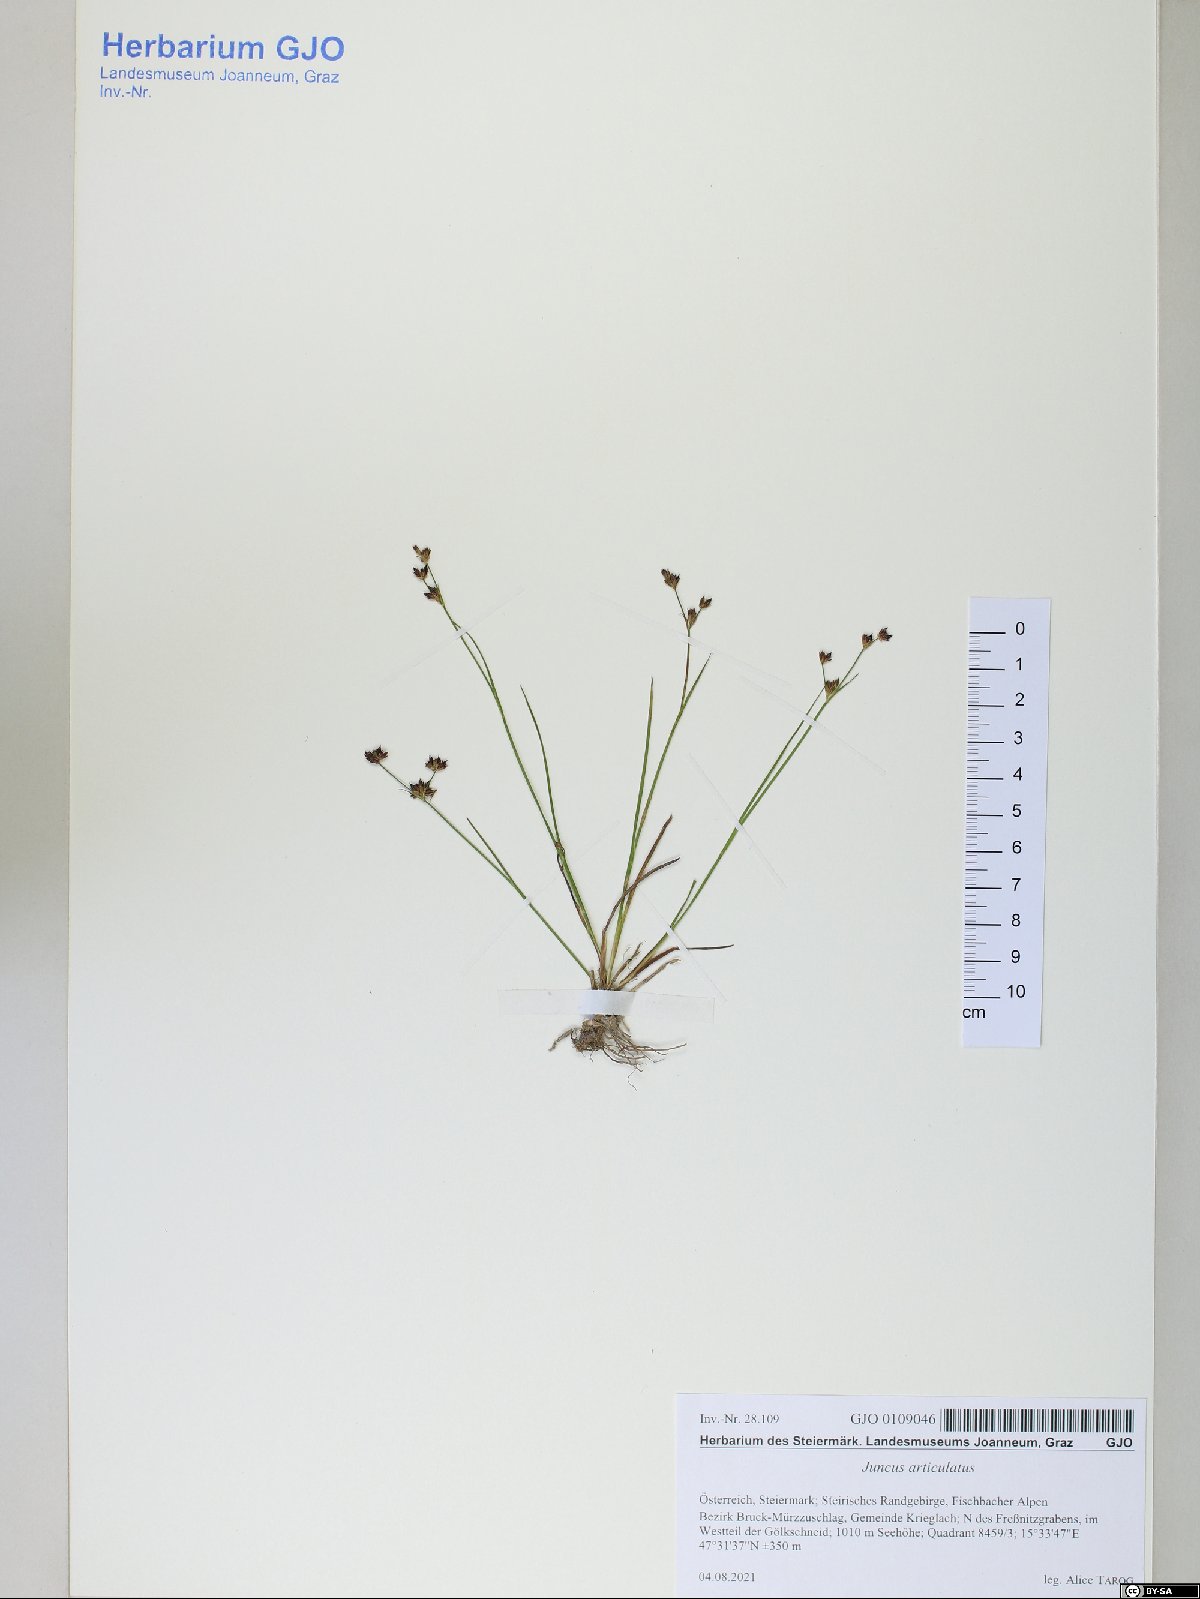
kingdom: Plantae
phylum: Tracheophyta
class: Liliopsida
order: Poales
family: Juncaceae
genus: Juncus
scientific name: Juncus articulatus
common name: Jointed rush
